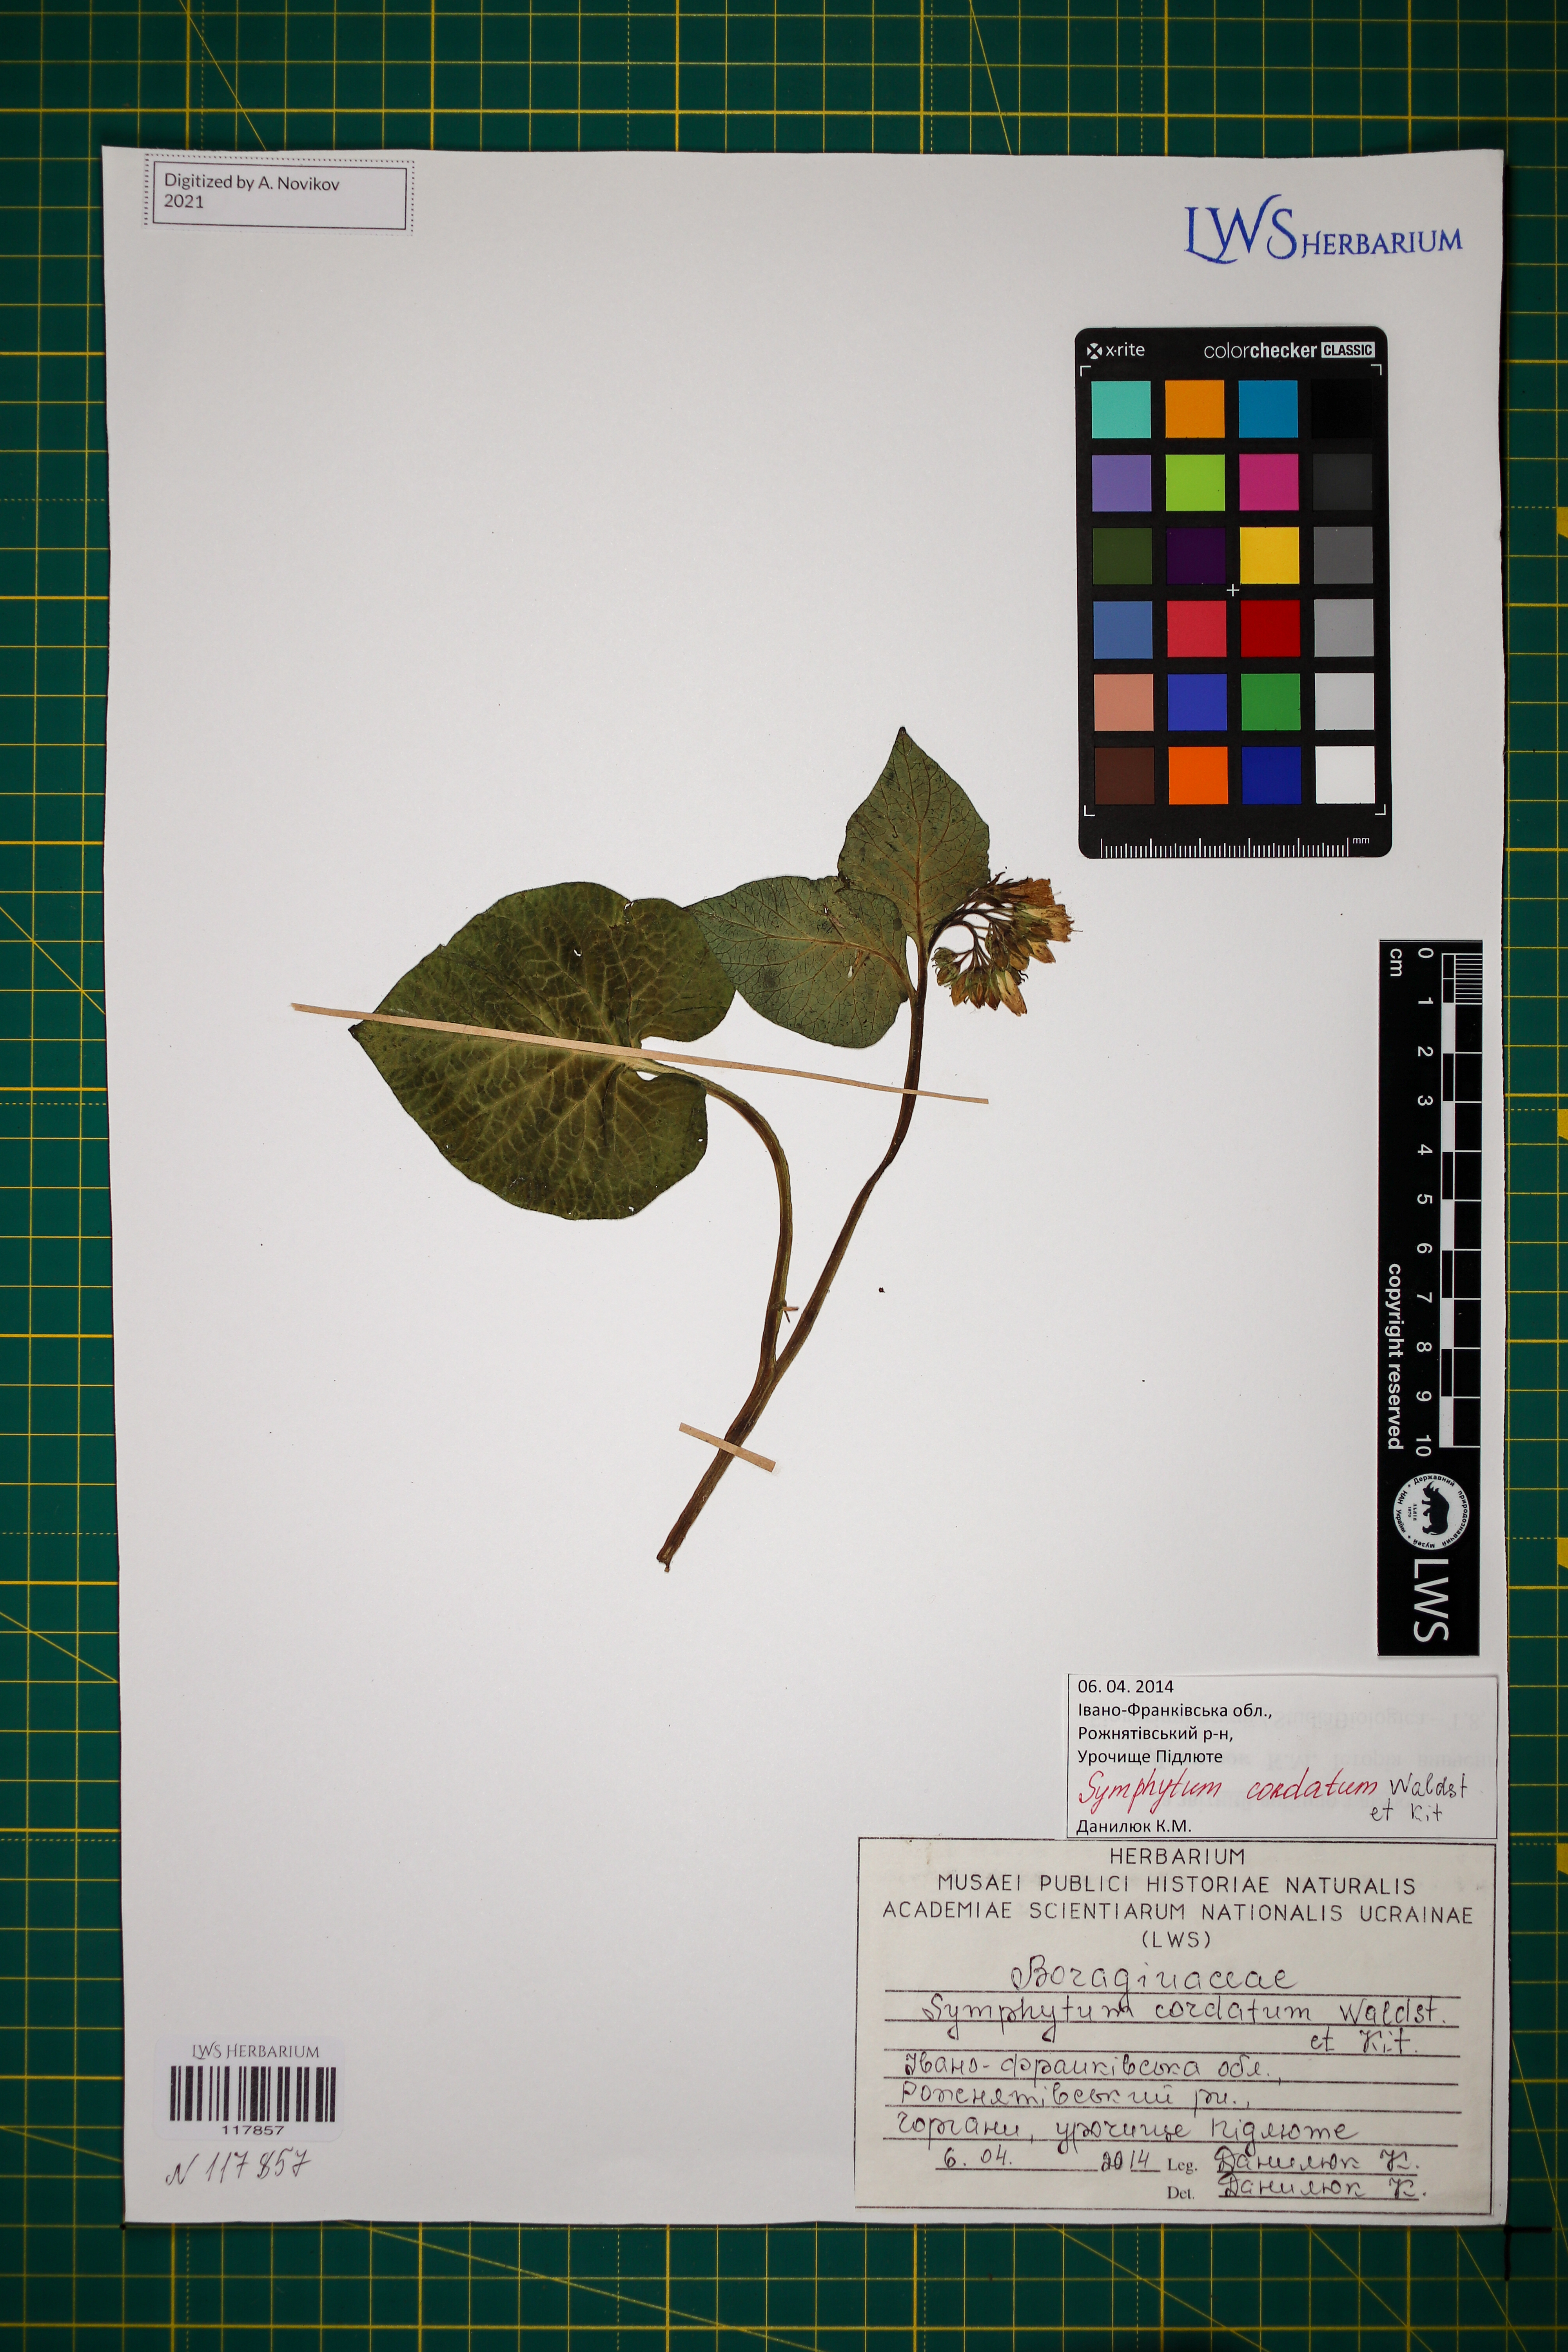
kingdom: Plantae
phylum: Tracheophyta
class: Magnoliopsida
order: Boraginales
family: Boraginaceae
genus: Symphytum
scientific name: Symphytum cordatum
